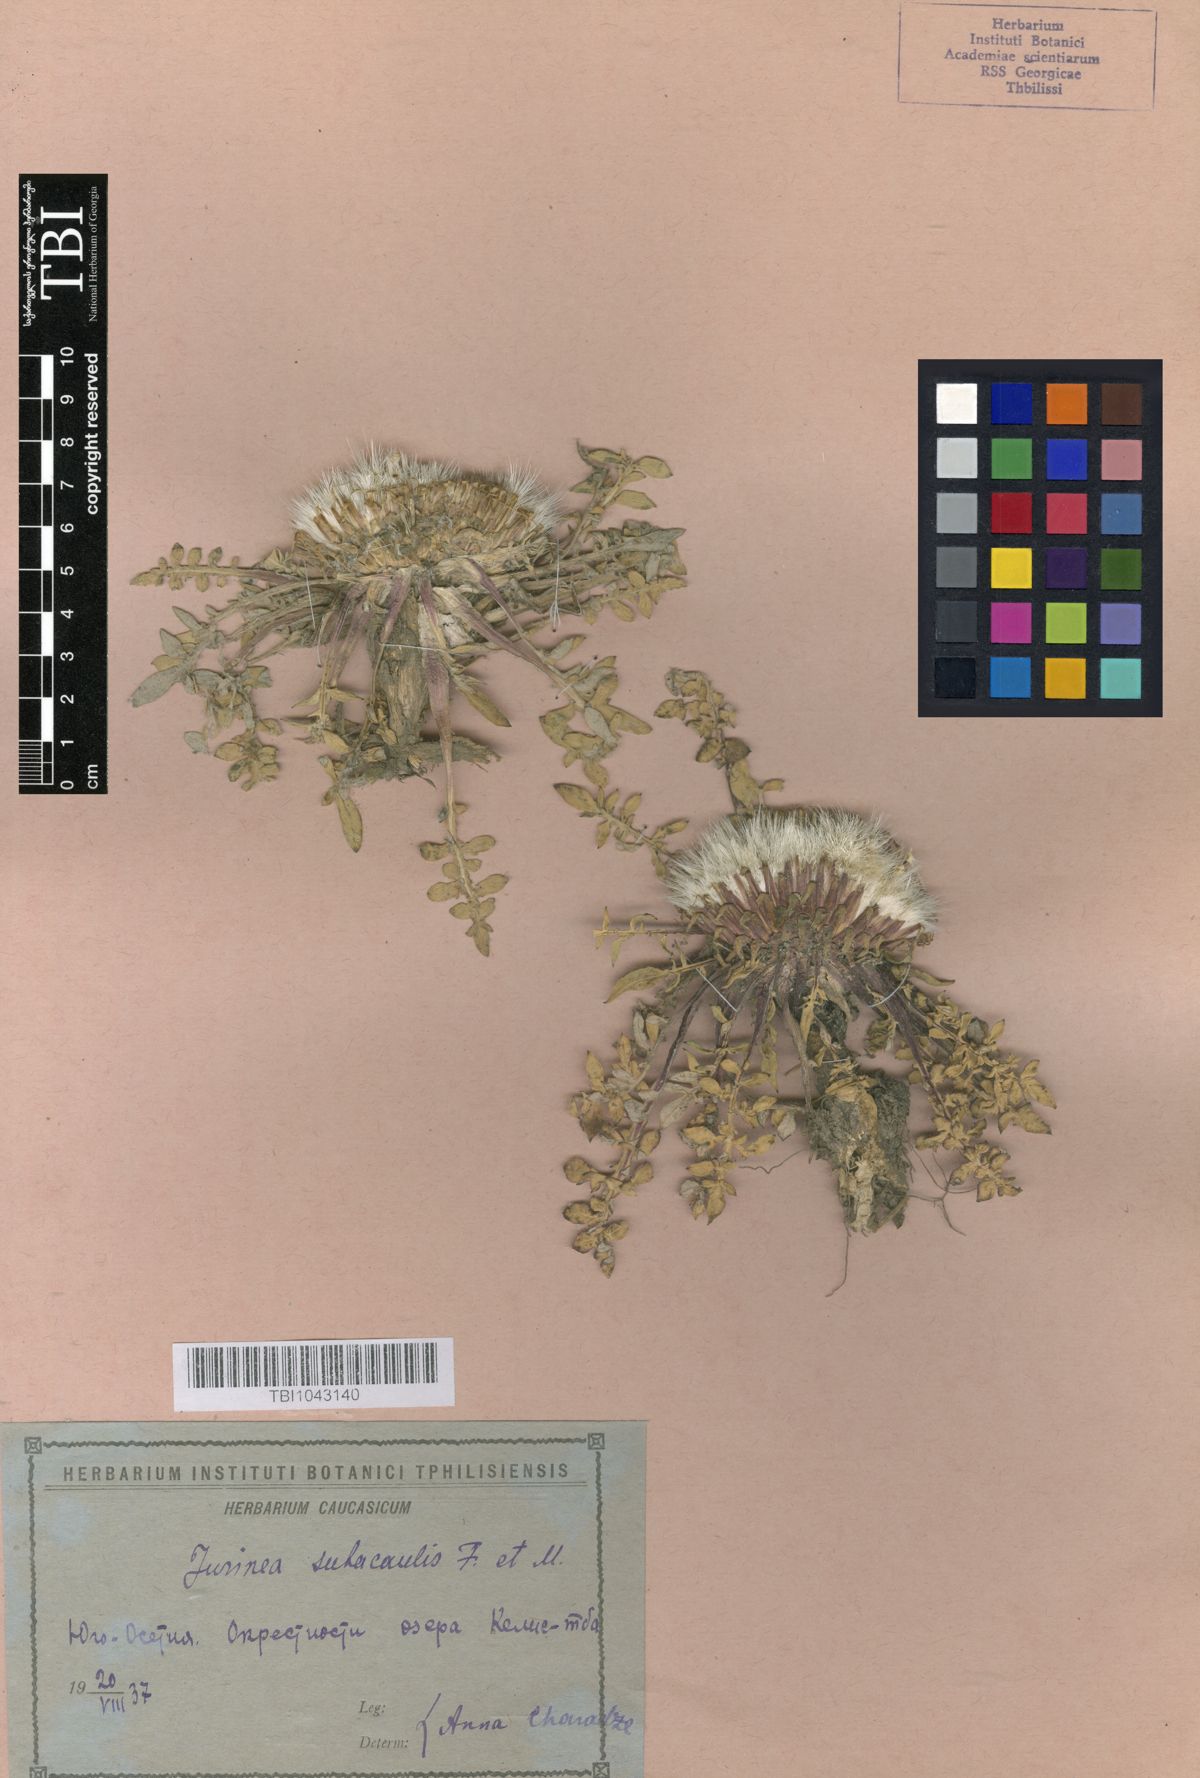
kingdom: Plantae
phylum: Tracheophyta
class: Magnoliopsida
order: Asterales
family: Asteraceae
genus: Jurinea
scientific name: Jurinea moschus
